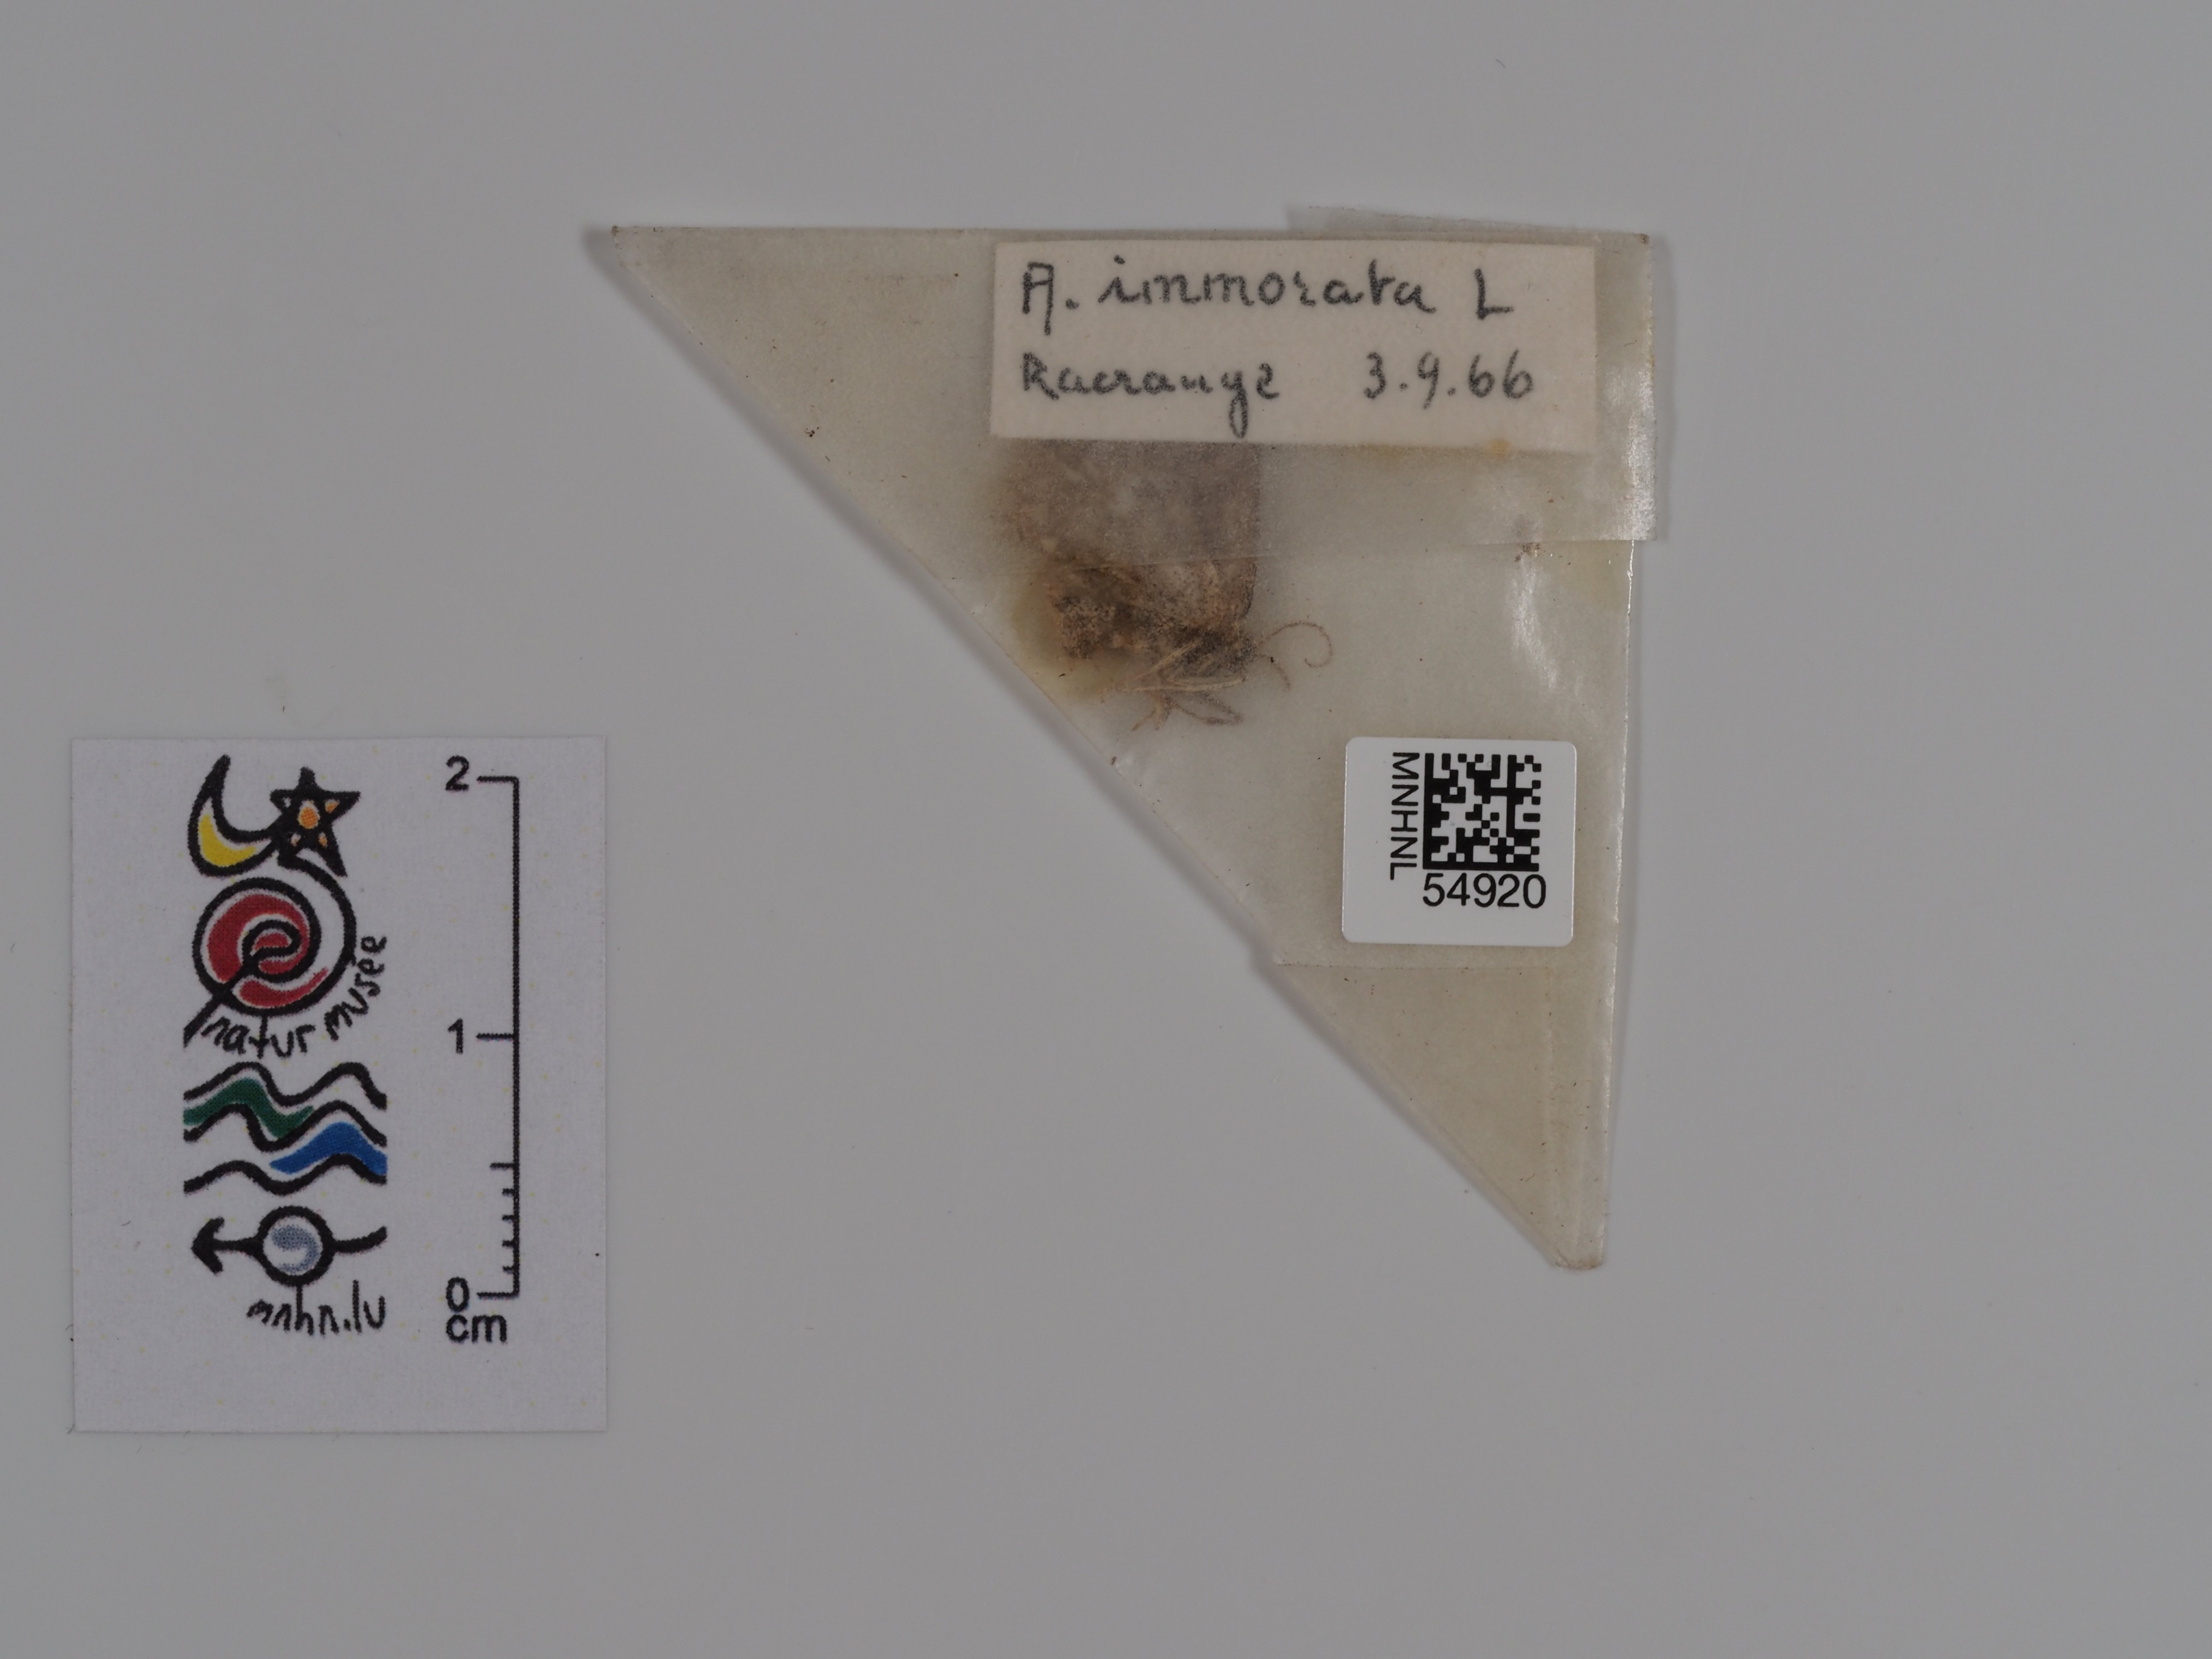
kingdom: Animalia
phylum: Arthropoda
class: Insecta
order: Lepidoptera
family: Geometridae
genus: Scopula
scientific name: Scopula immorata
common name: Lewes wave
